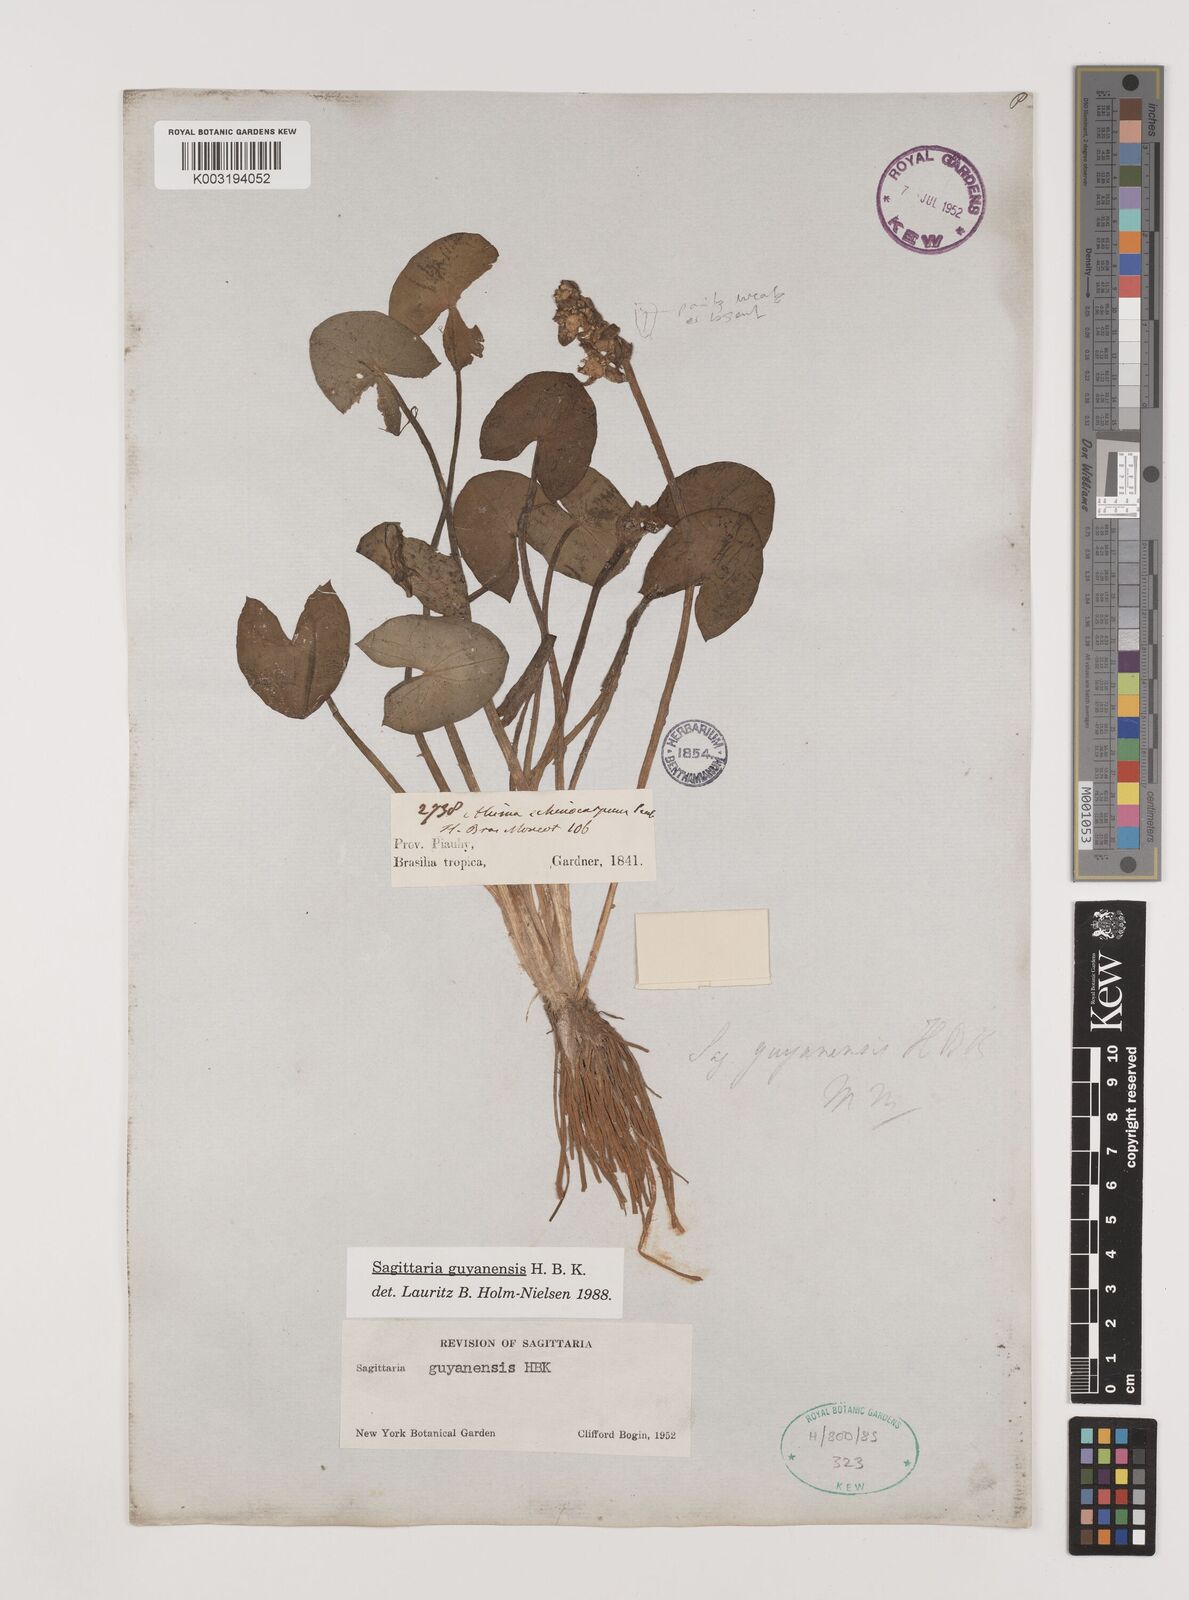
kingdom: Plantae
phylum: Tracheophyta
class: Liliopsida
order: Alismatales
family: Alismataceae
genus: Sagittaria
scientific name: Sagittaria guayanensis
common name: Guyanese arrowhead
